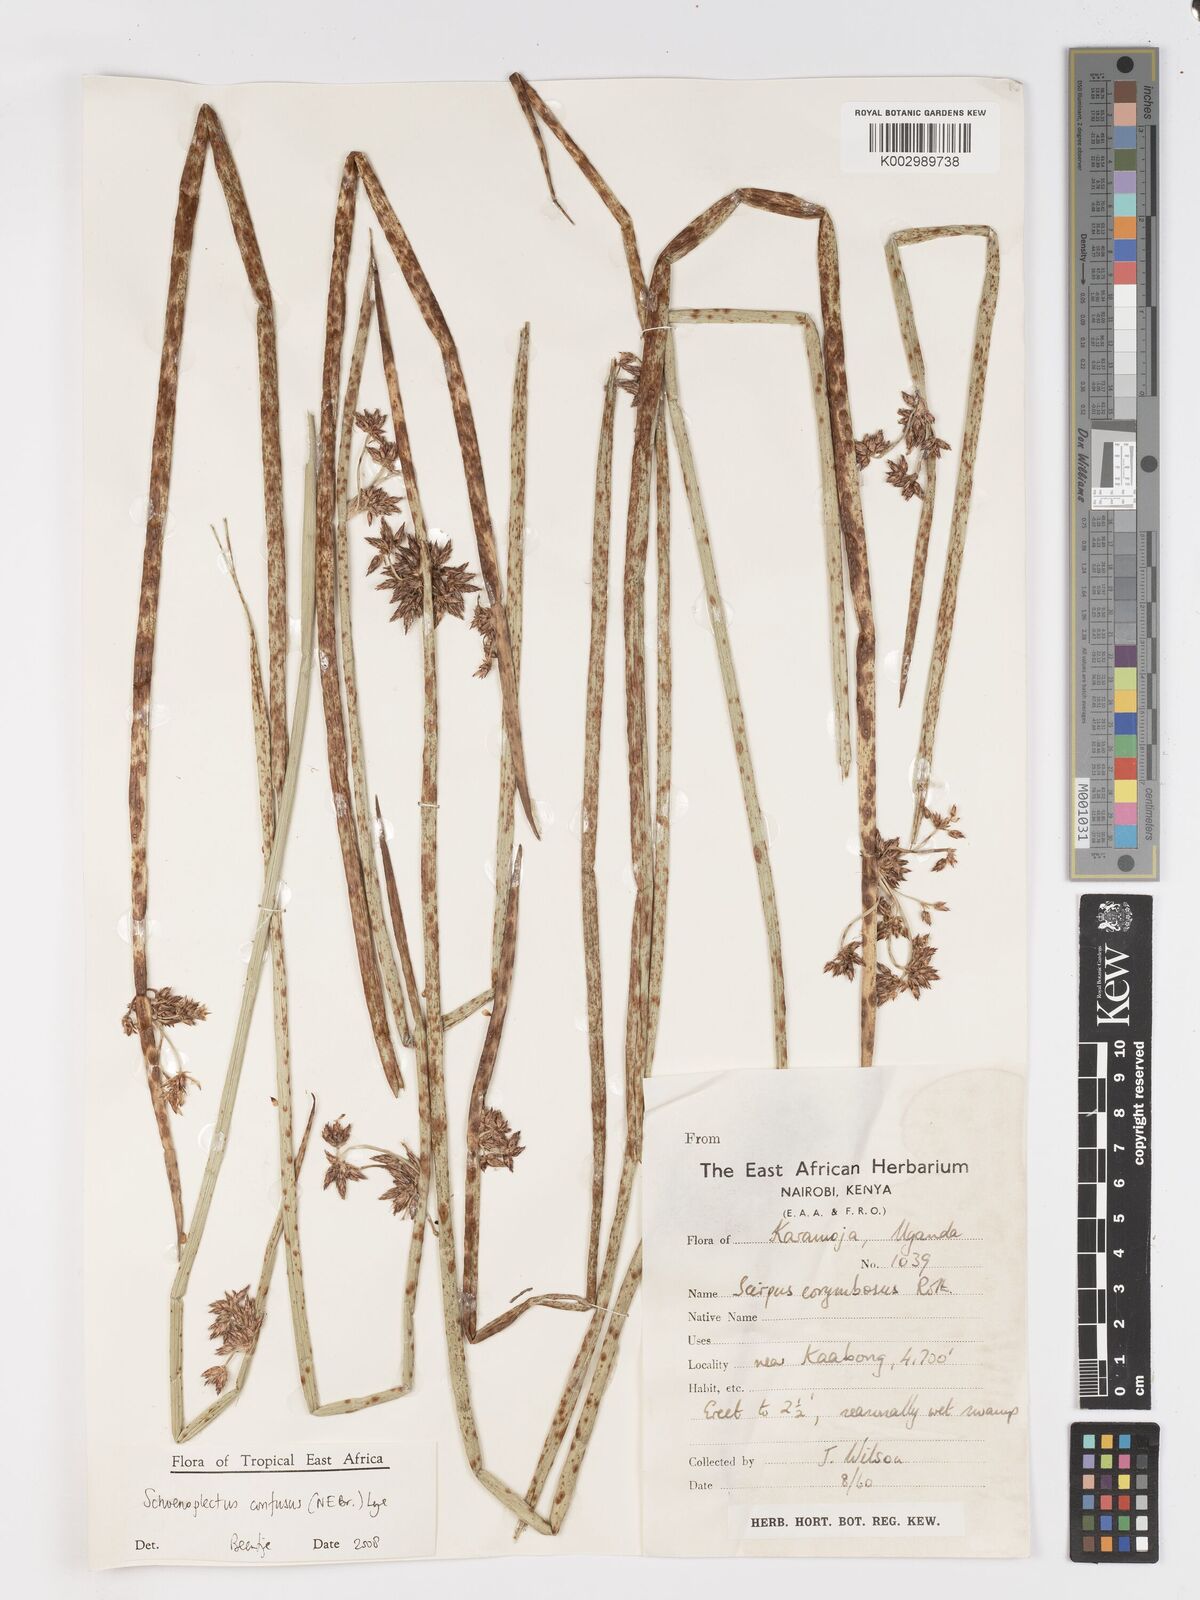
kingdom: Plantae
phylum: Tracheophyta
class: Liliopsida
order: Poales
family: Cyperaceae
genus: Schoenoplectiella
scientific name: Schoenoplectiella confusa
